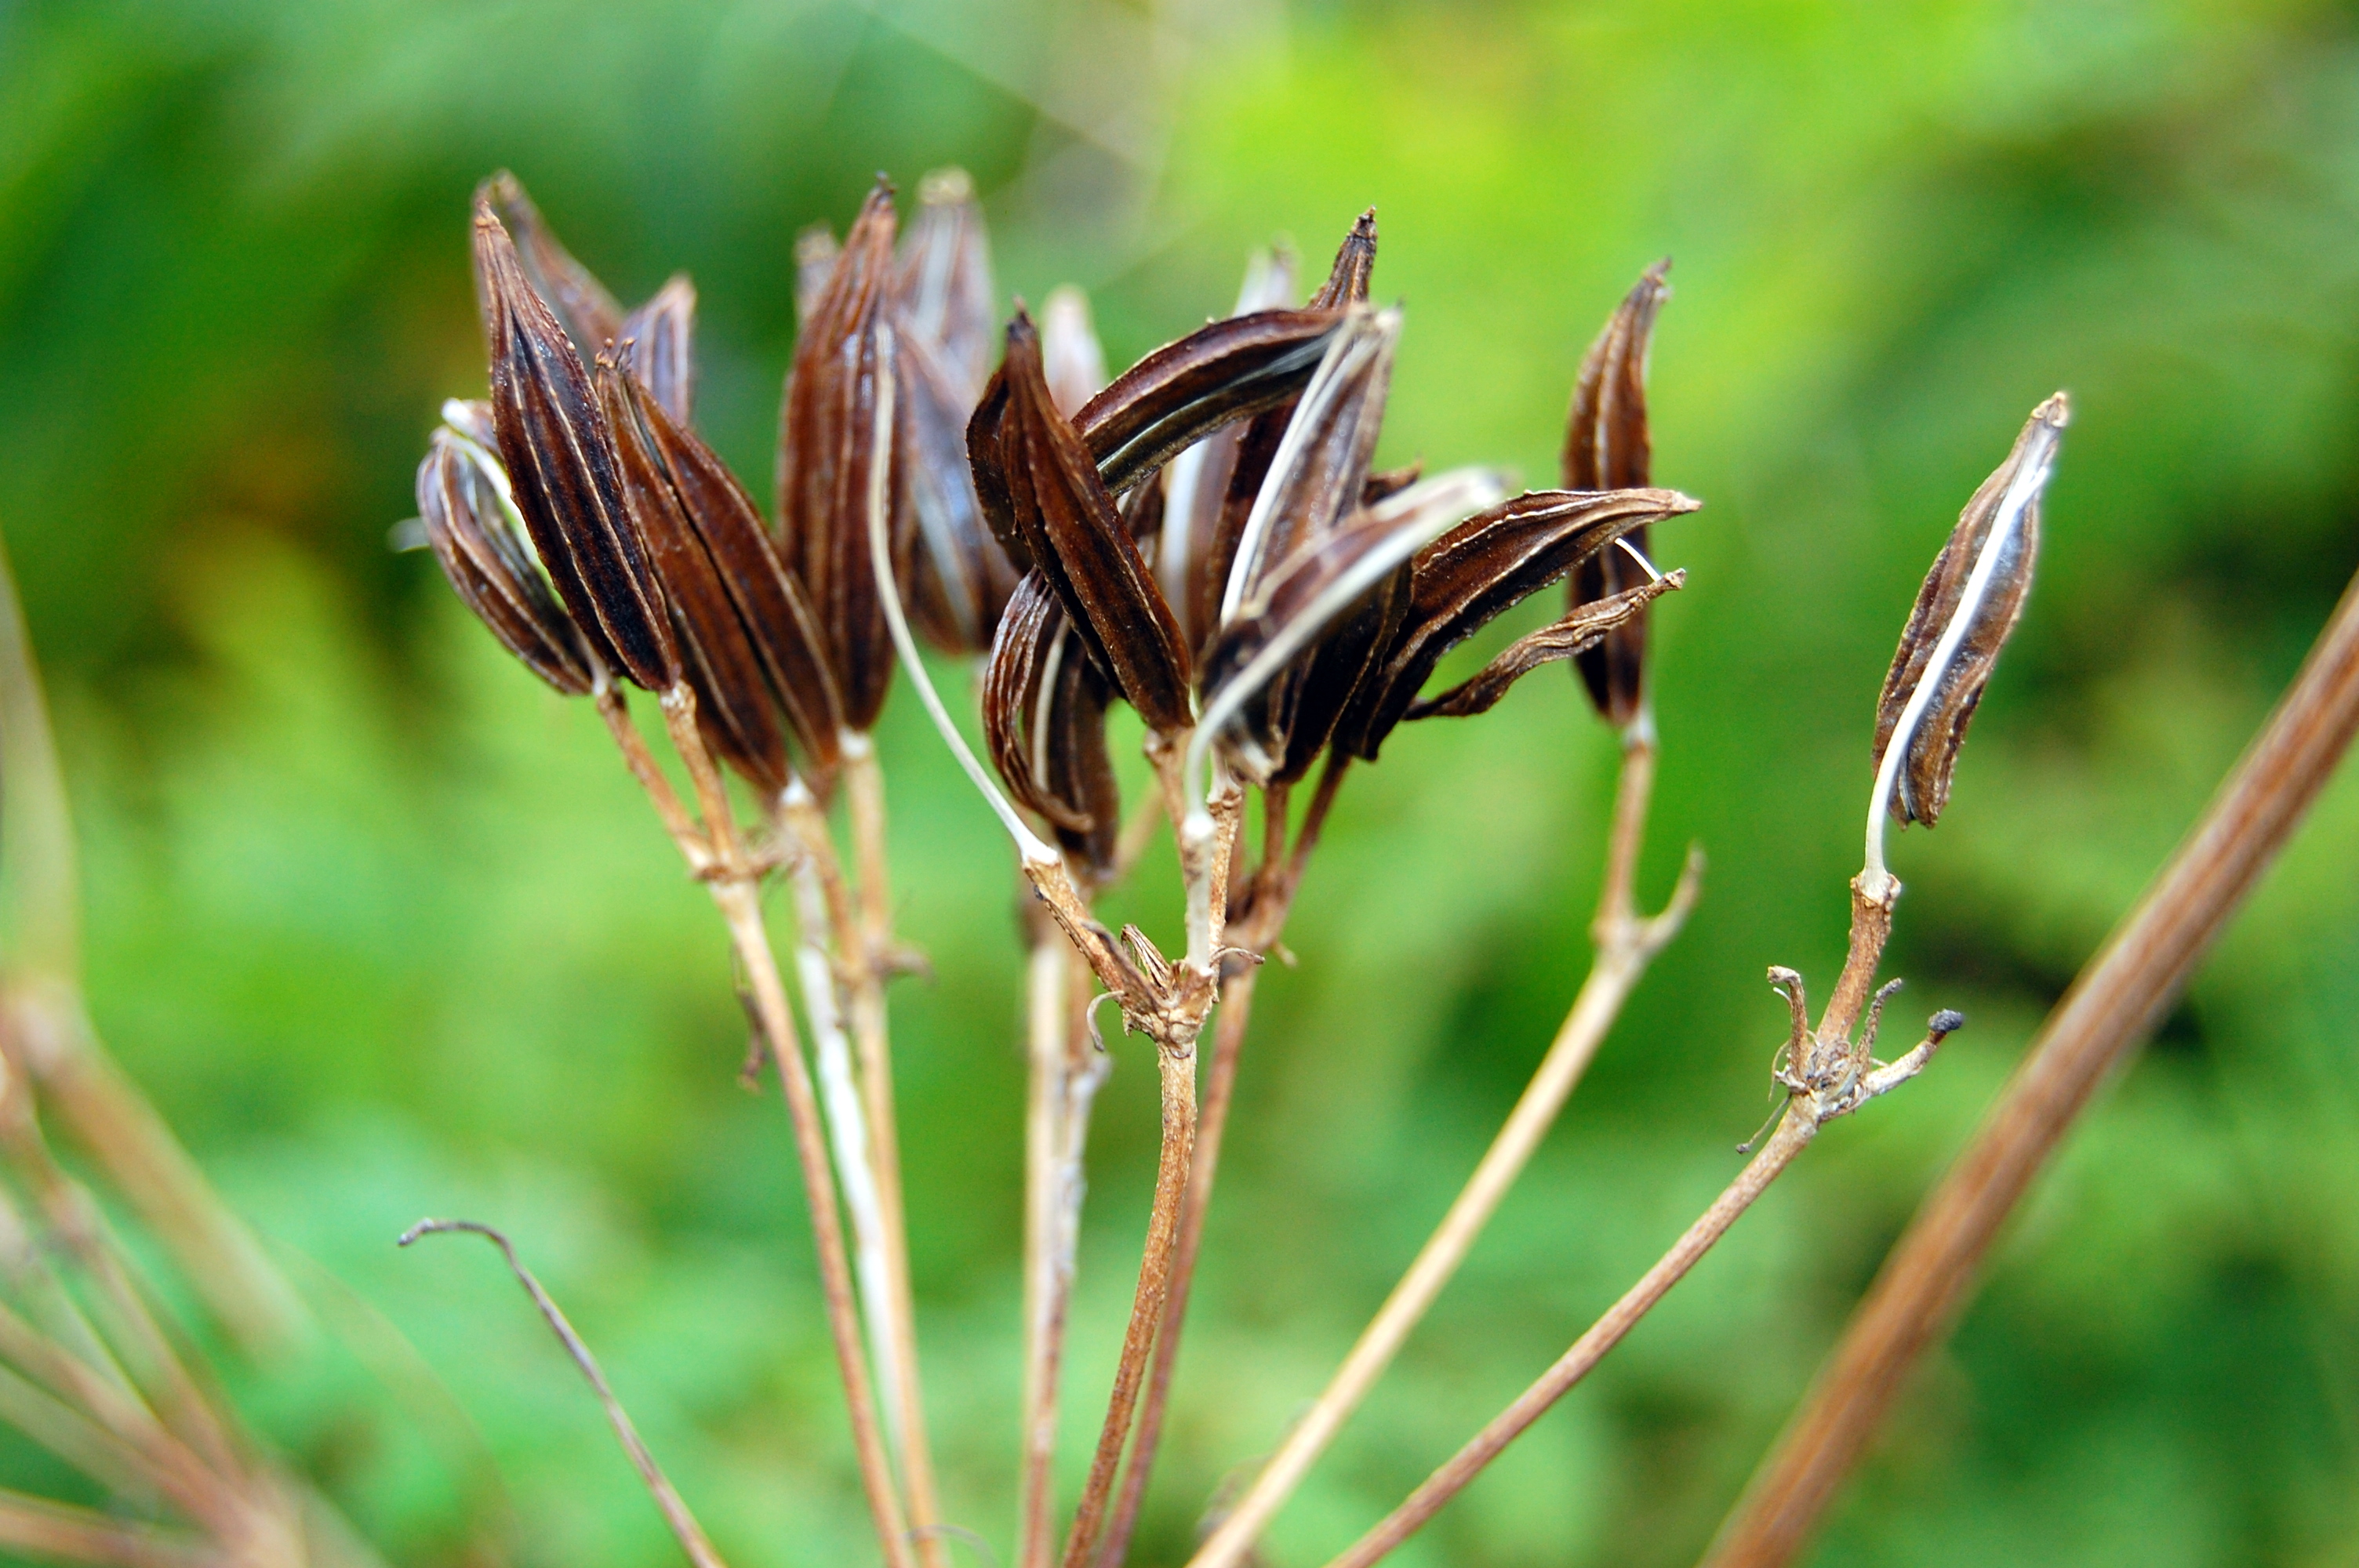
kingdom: Plantae
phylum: Tracheophyta
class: Magnoliopsida
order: Apiales
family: Apiaceae
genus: Myrrhis
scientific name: Myrrhis odorata
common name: Sweet cicely
